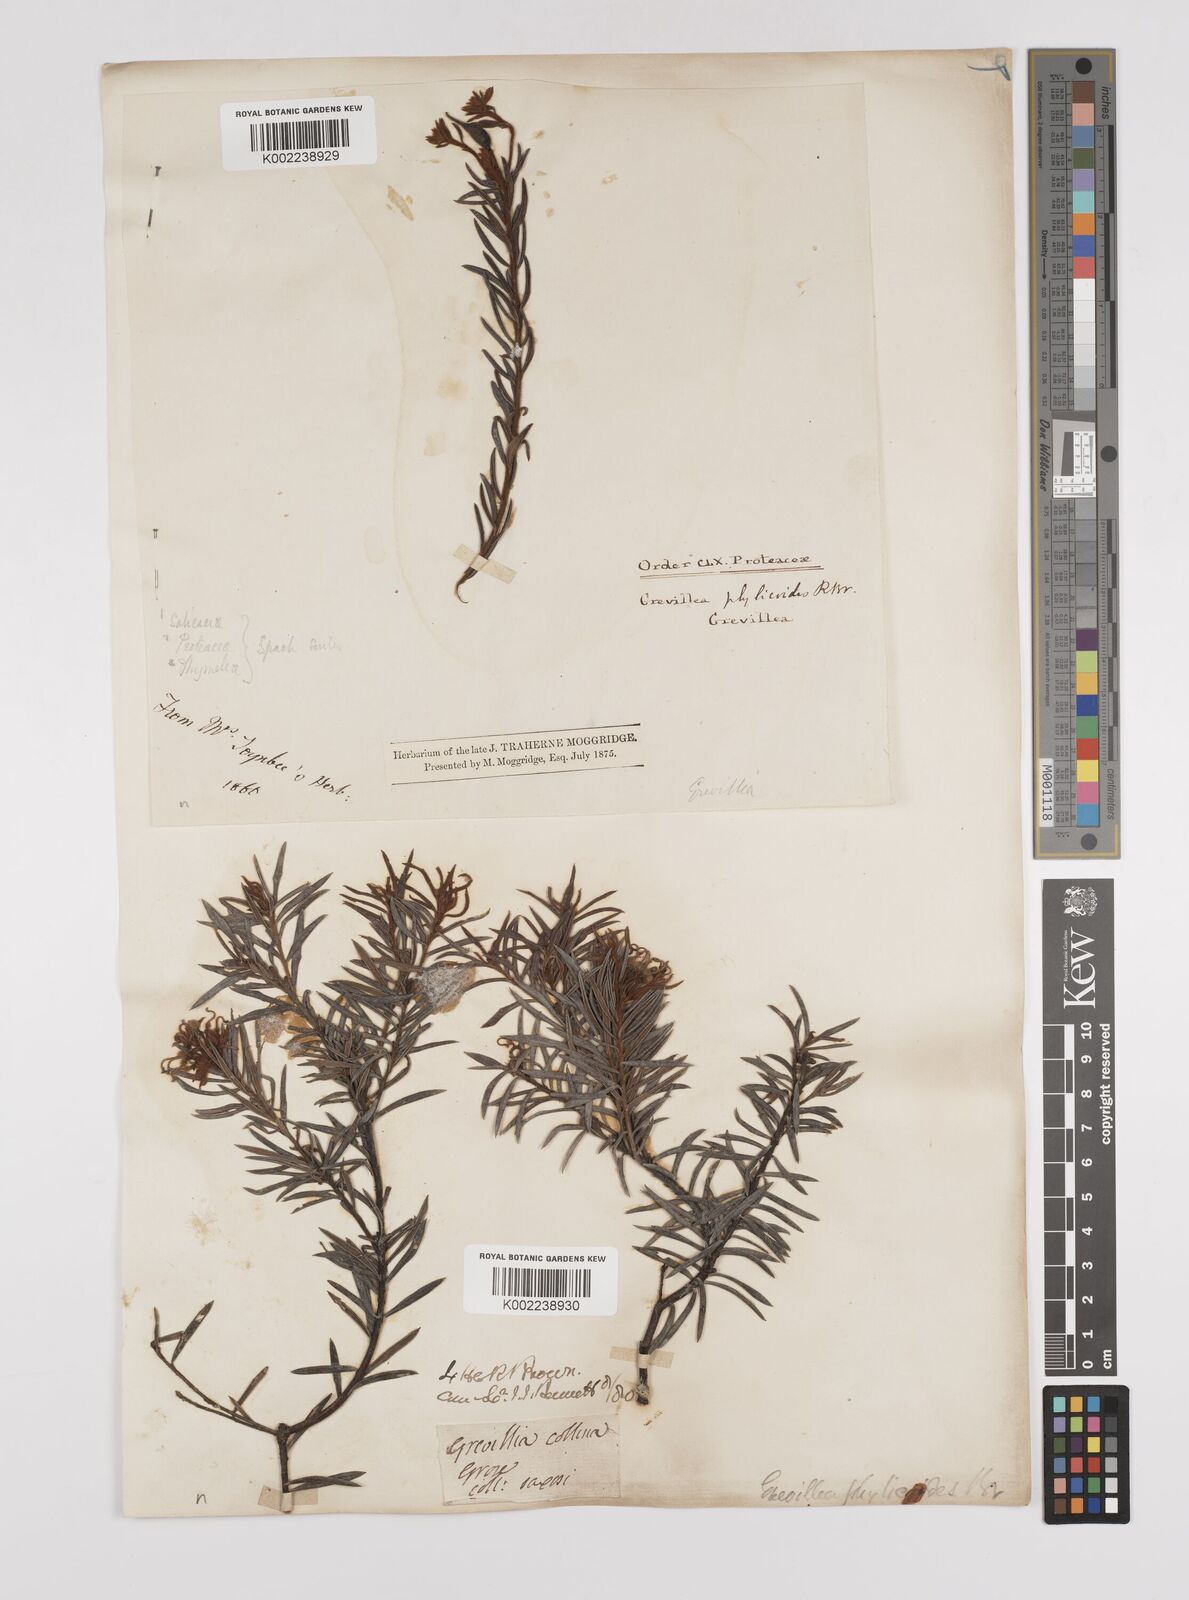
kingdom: Plantae
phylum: Tracheophyta
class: Magnoliopsida
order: Proteales
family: Proteaceae
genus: Grevillea
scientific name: Grevillea phylicoides
